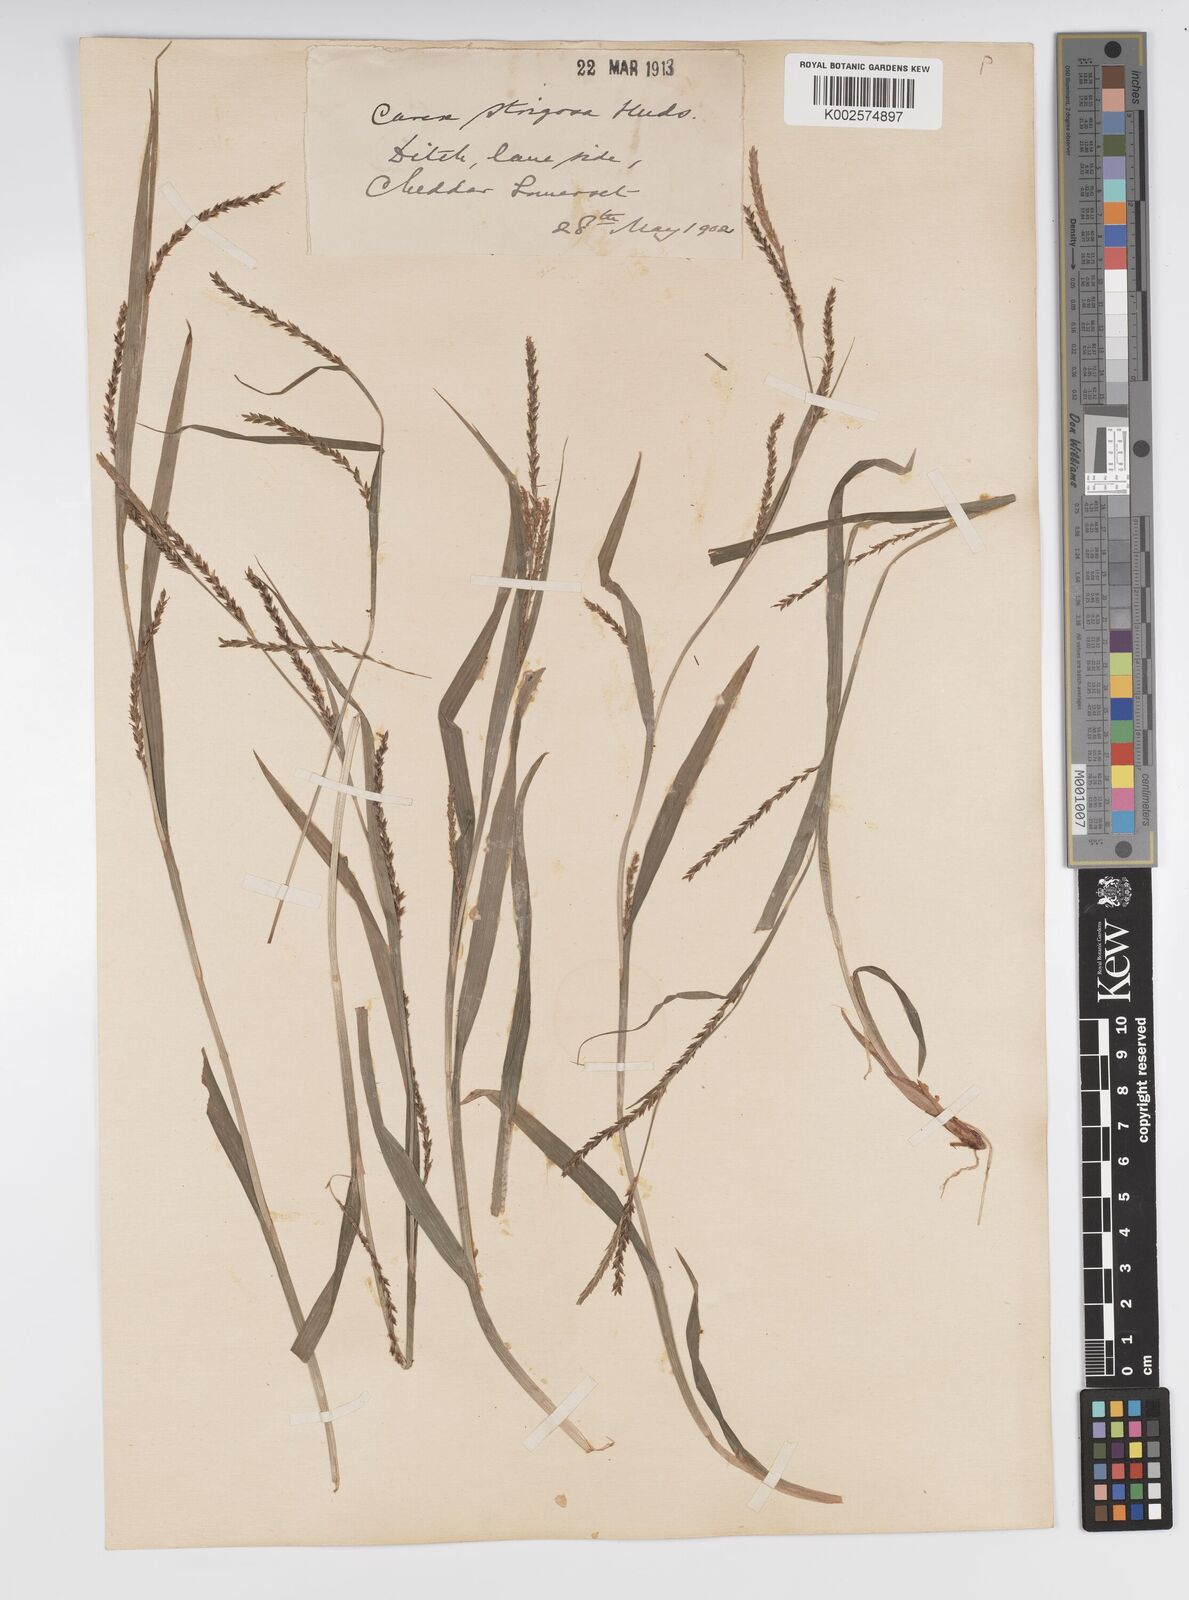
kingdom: Plantae
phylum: Tracheophyta
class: Liliopsida
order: Poales
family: Cyperaceae
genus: Carex
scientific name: Carex strigosa
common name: Thin-spiked wood-sedge
